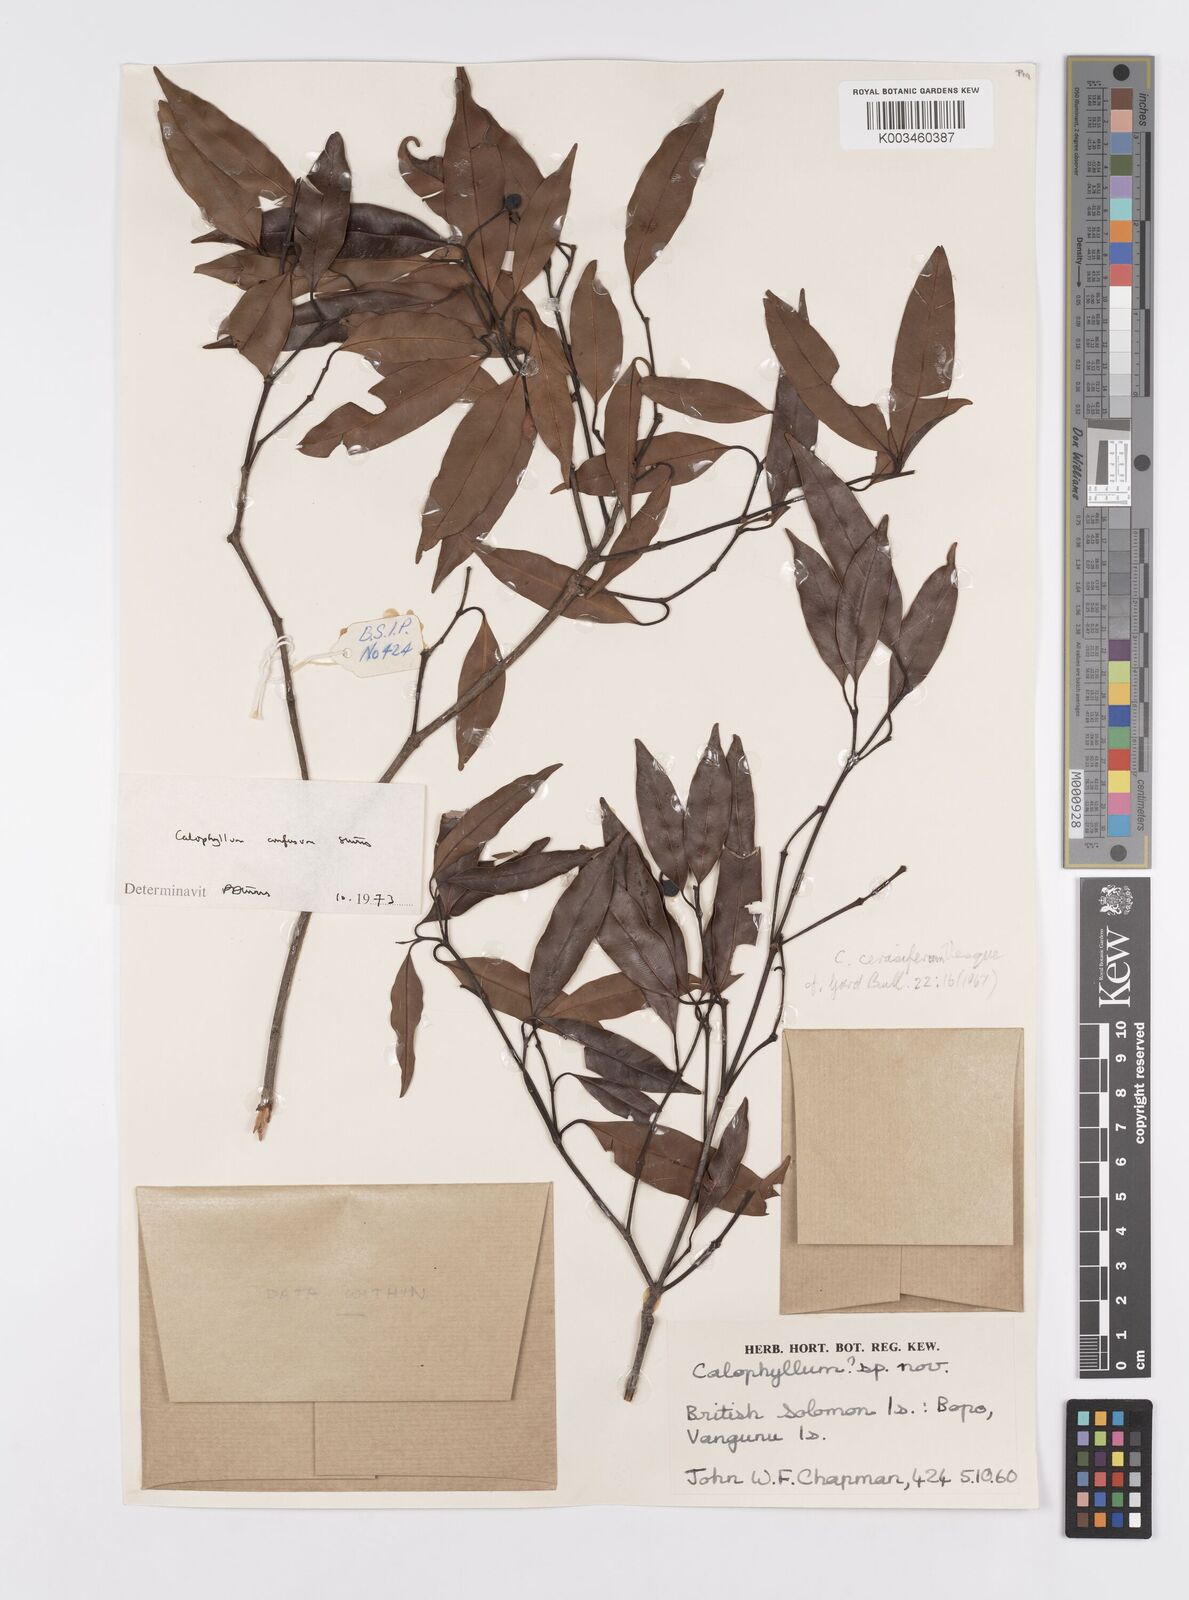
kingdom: Plantae
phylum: Tracheophyta
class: Magnoliopsida
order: Malpighiales
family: Calophyllaceae
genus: Calophyllum
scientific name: Calophyllum cerasiferum
